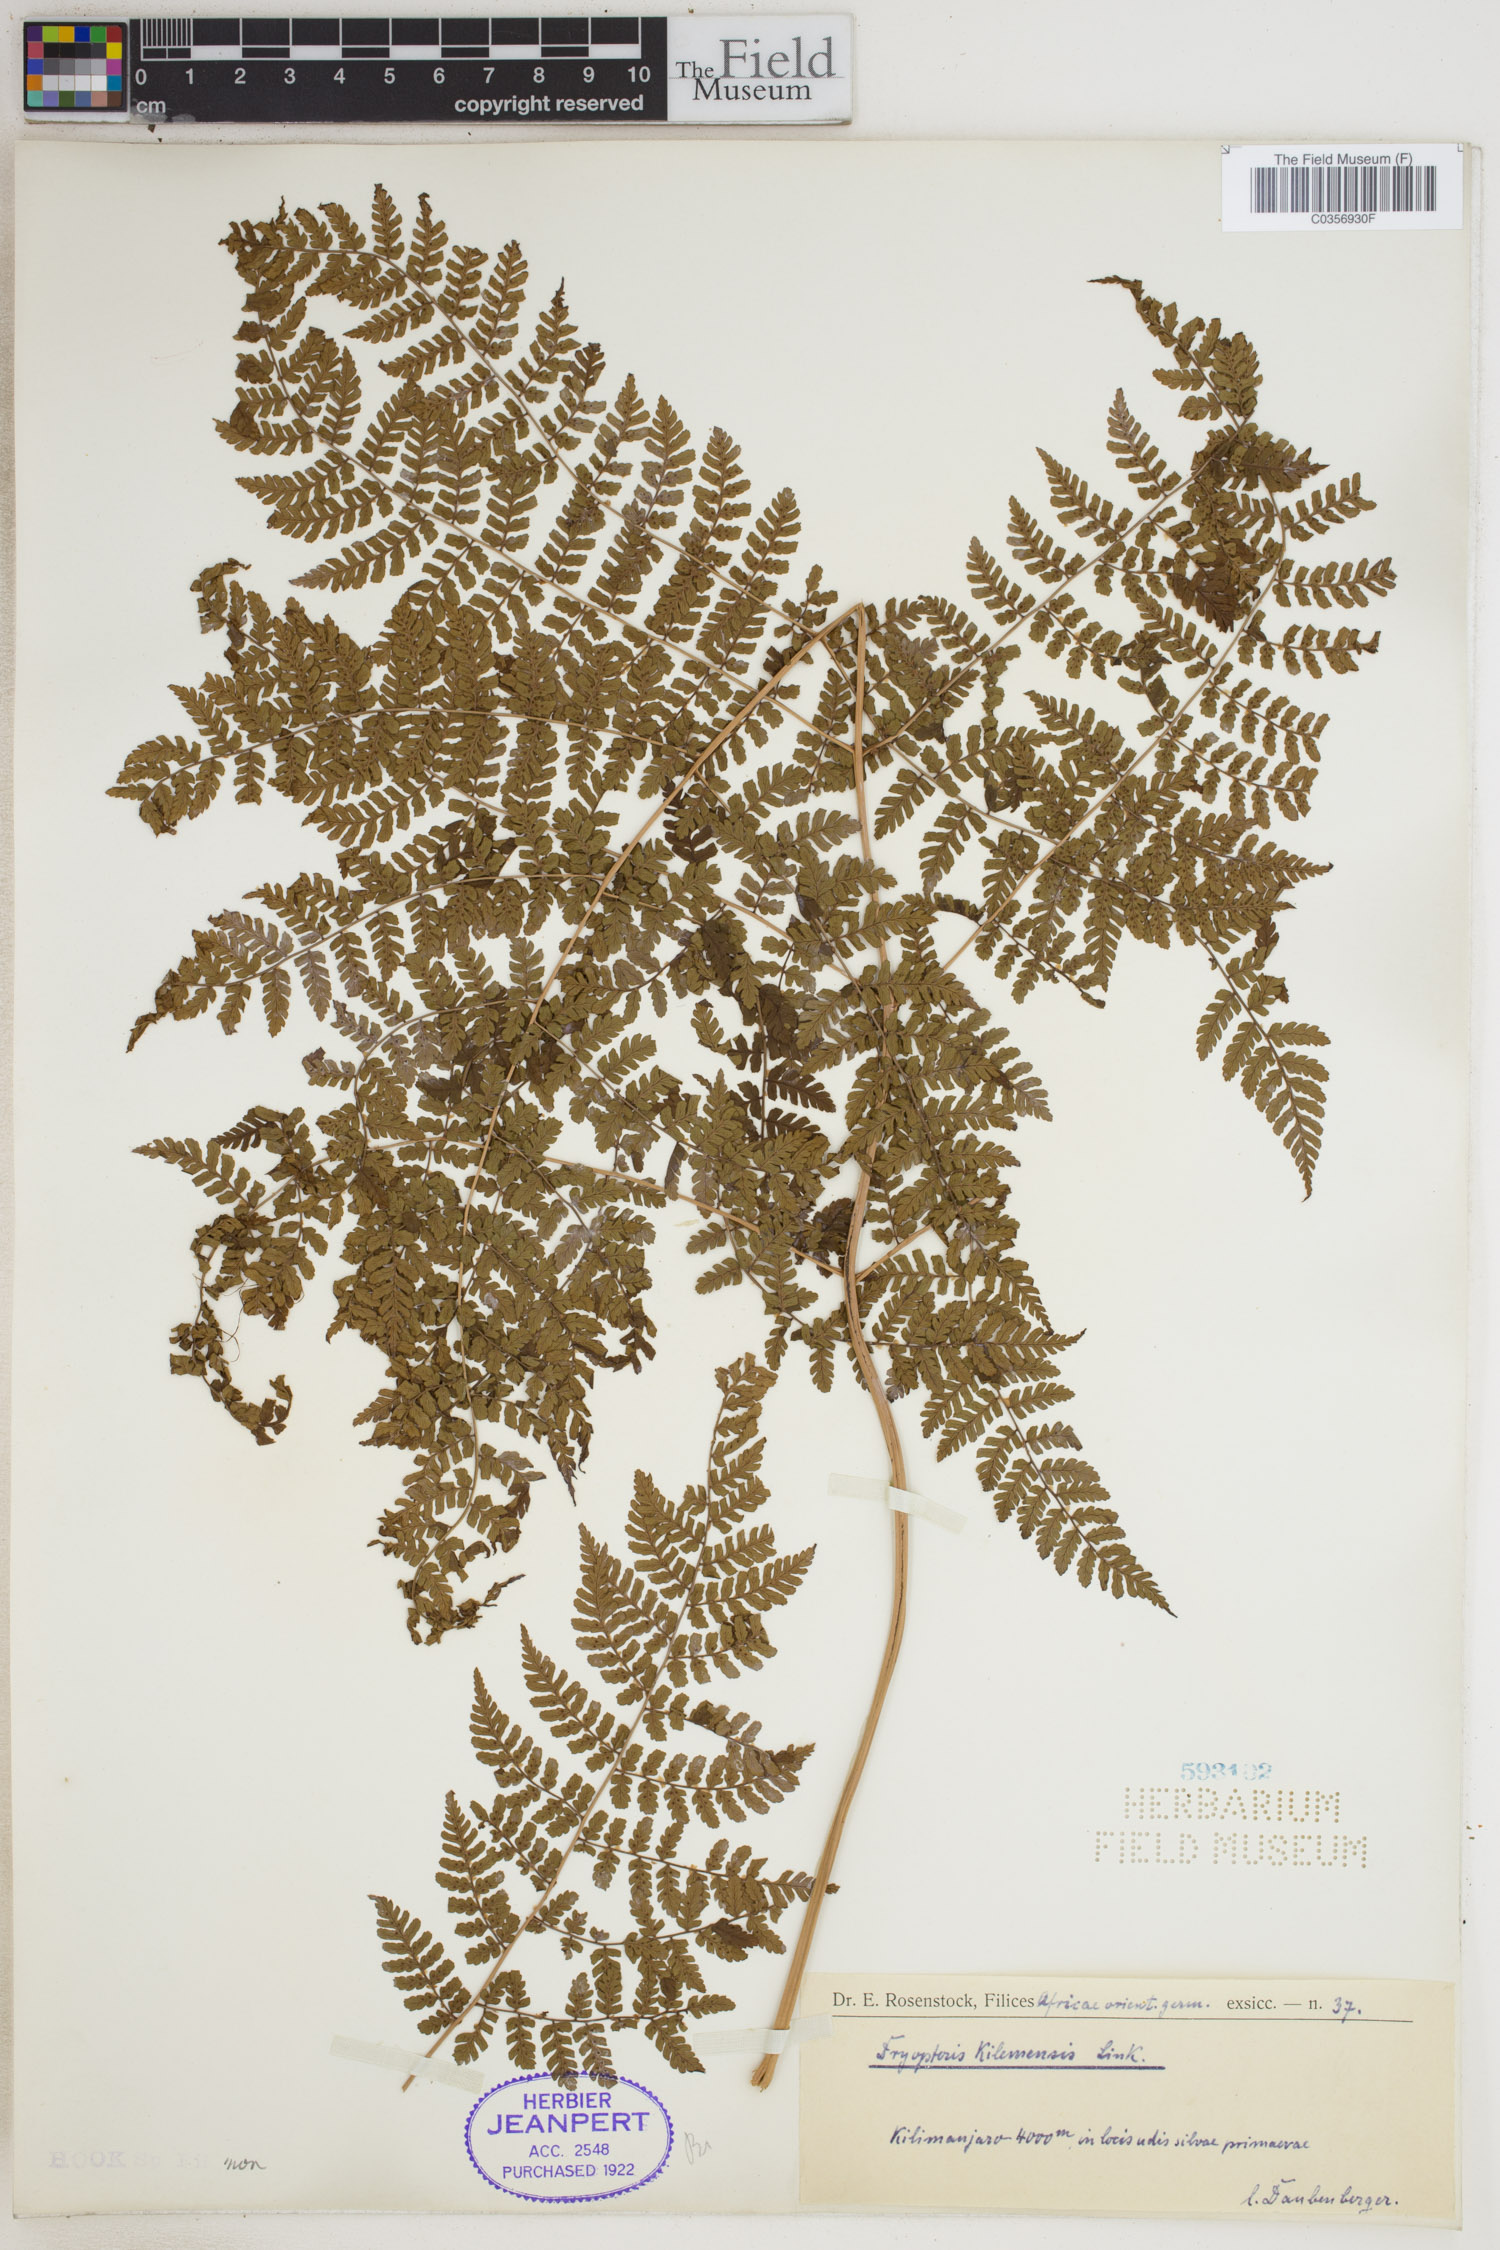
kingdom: Plantae
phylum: Tracheophyta
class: Polypodiopsida
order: Polypodiales
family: Dryopteridaceae
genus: Dryopteris
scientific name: Dryopteris kilemensis
